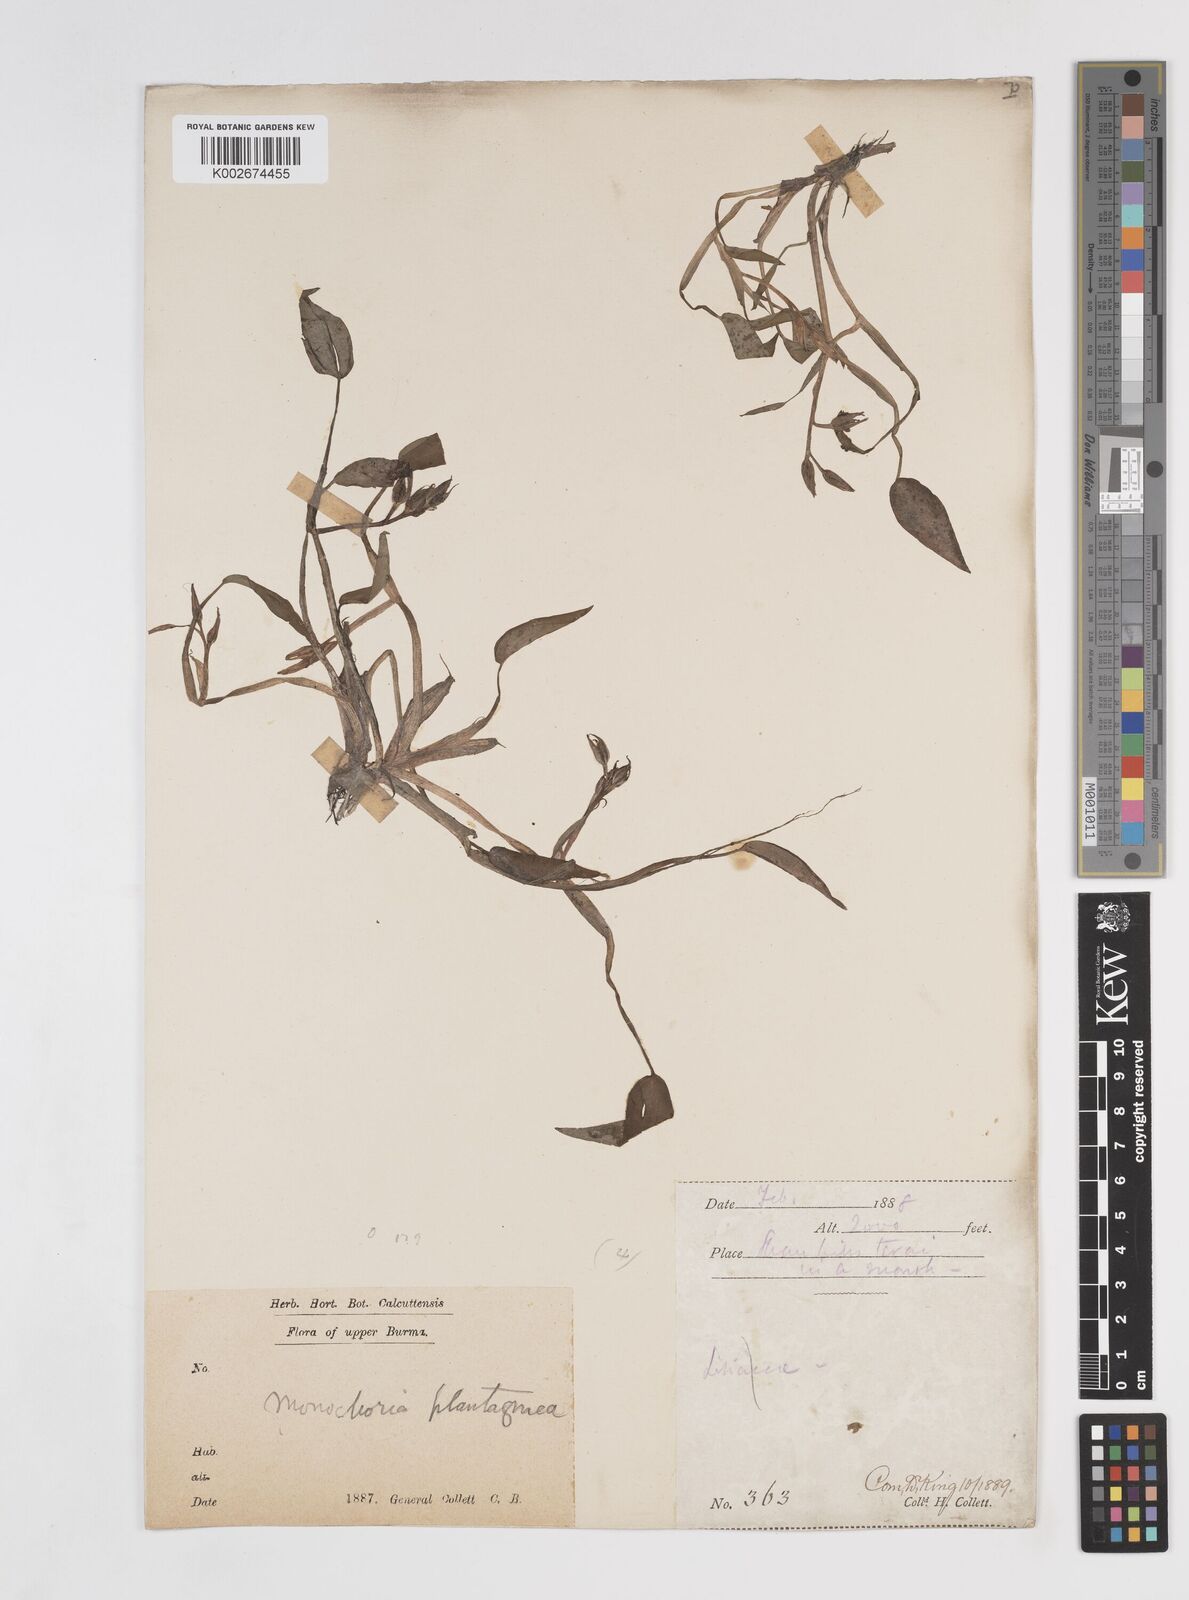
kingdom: Plantae
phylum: Tracheophyta
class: Liliopsida
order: Commelinales
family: Pontederiaceae
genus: Pontederia
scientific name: Pontederia vaginalis
